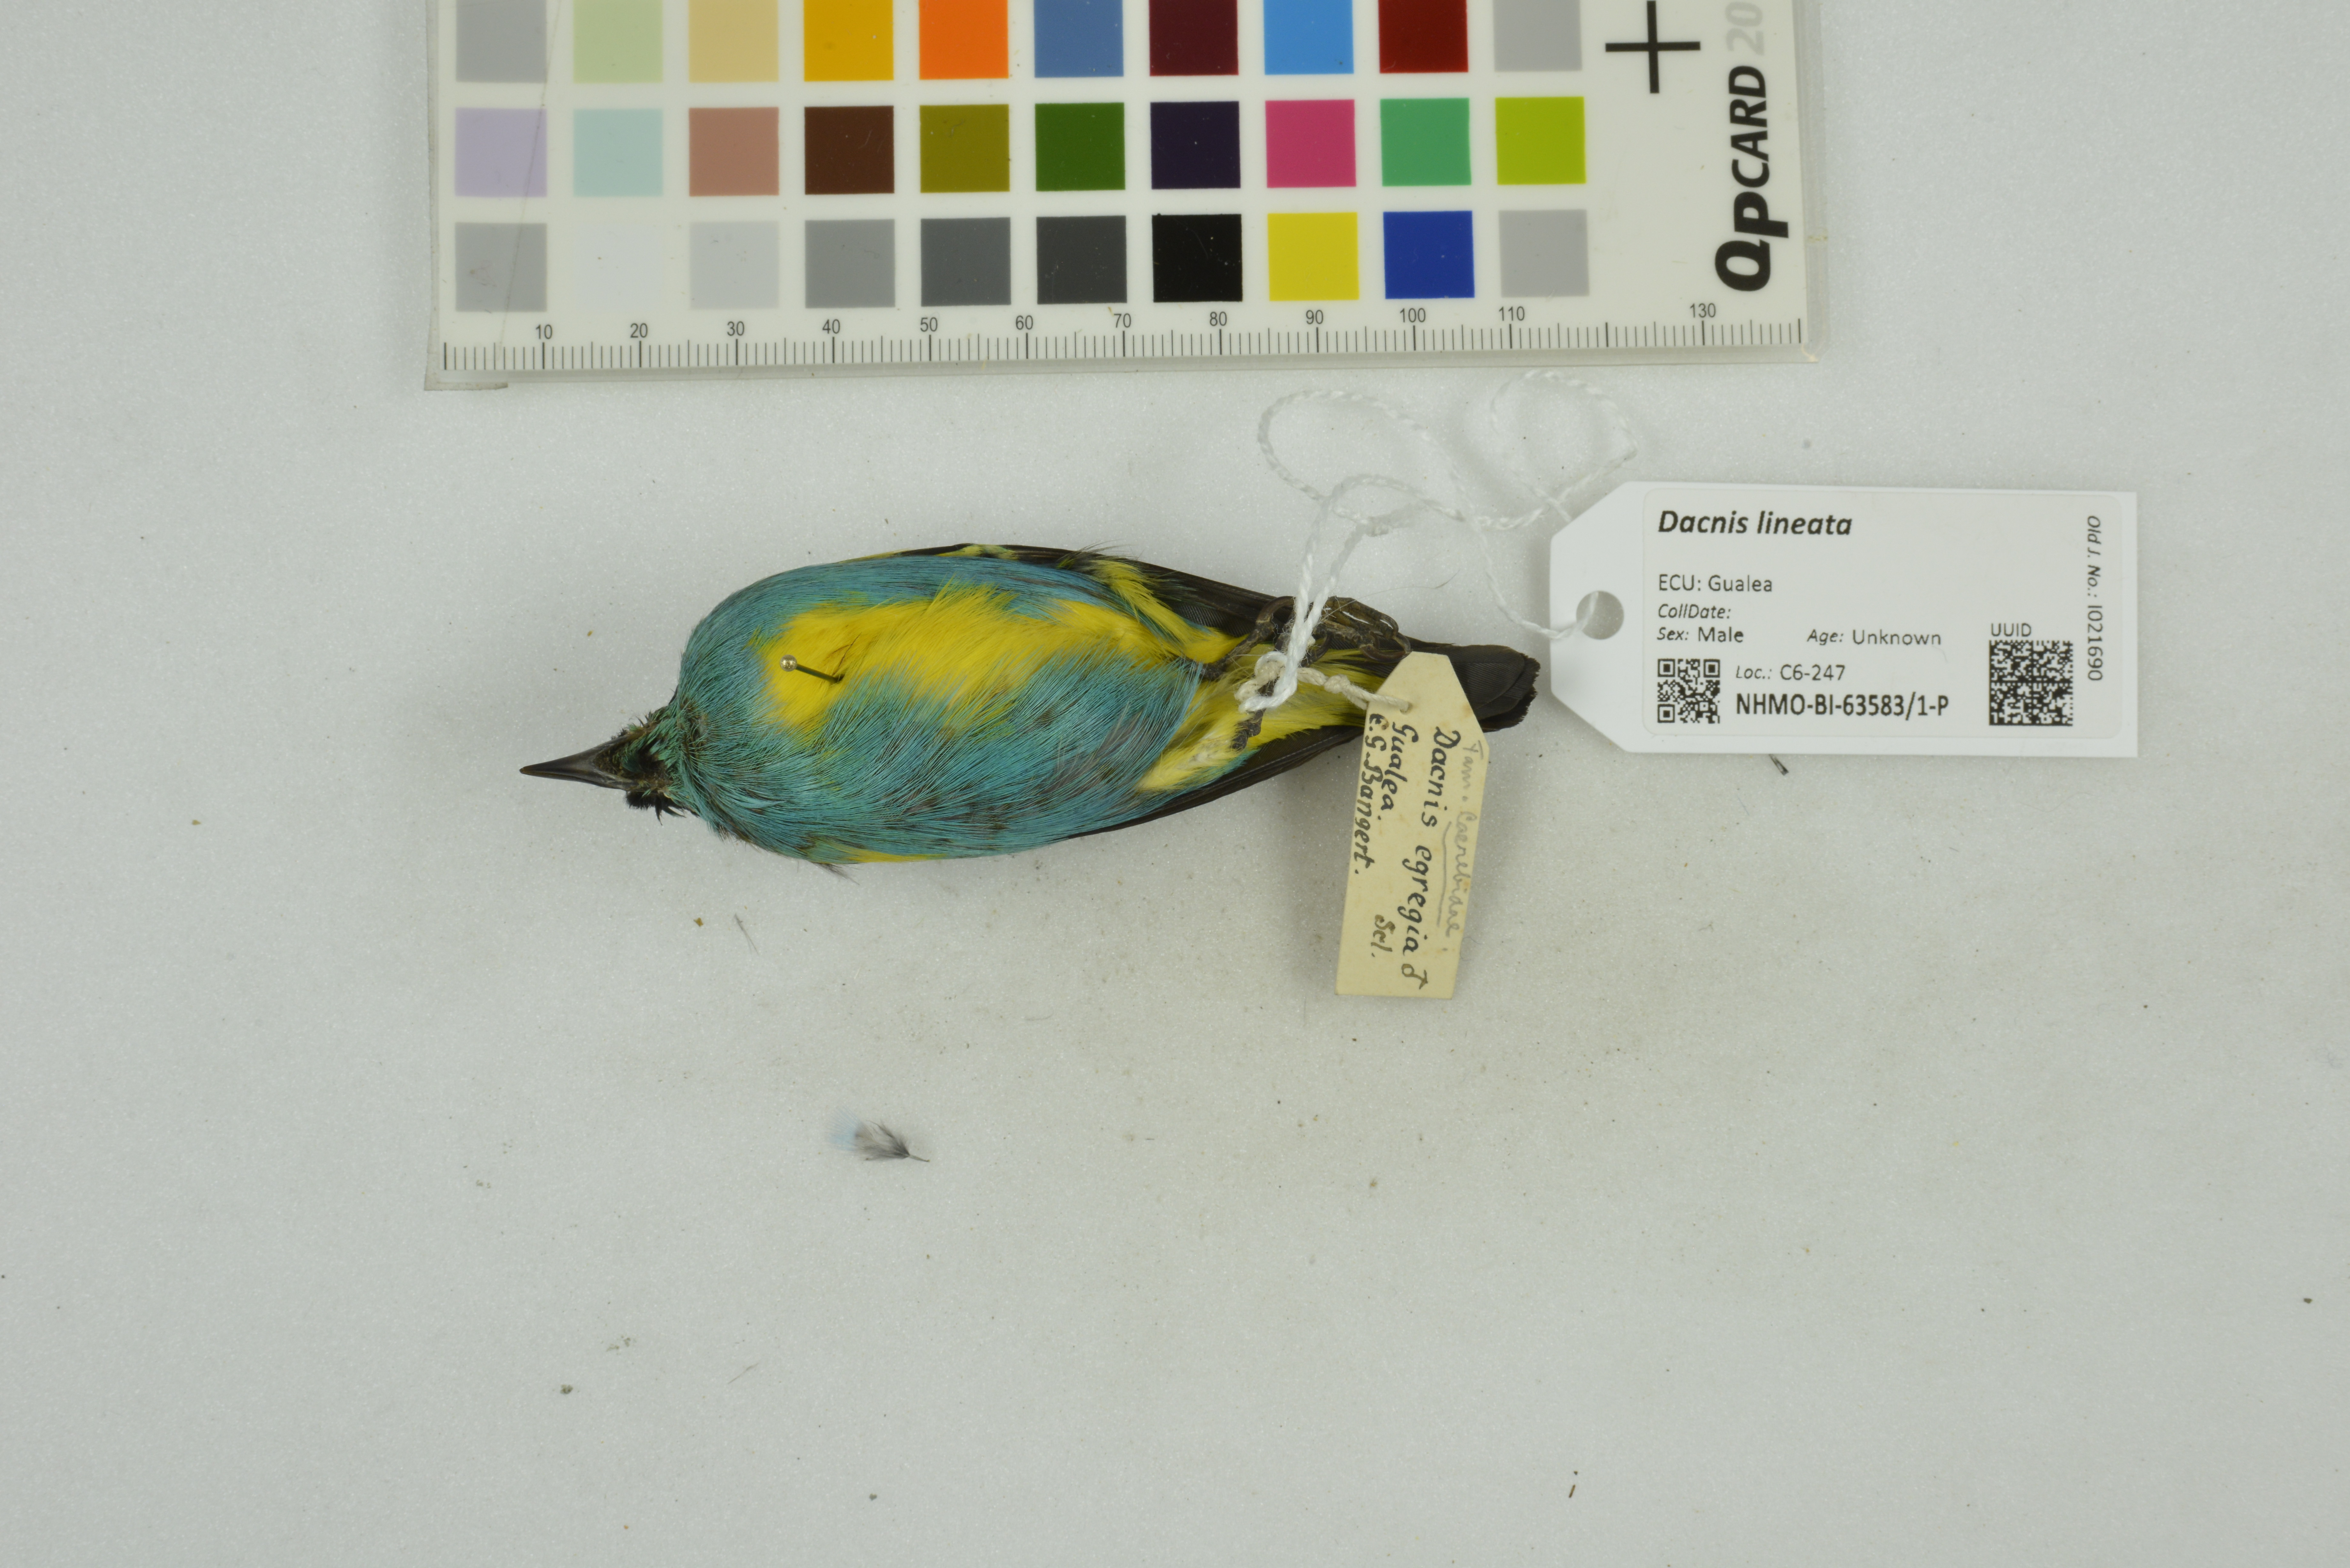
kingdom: Animalia
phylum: Chordata
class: Aves
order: Passeriformes
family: Thraupidae
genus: Dacnis
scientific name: Dacnis lineata
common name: Black-faced dacnis
